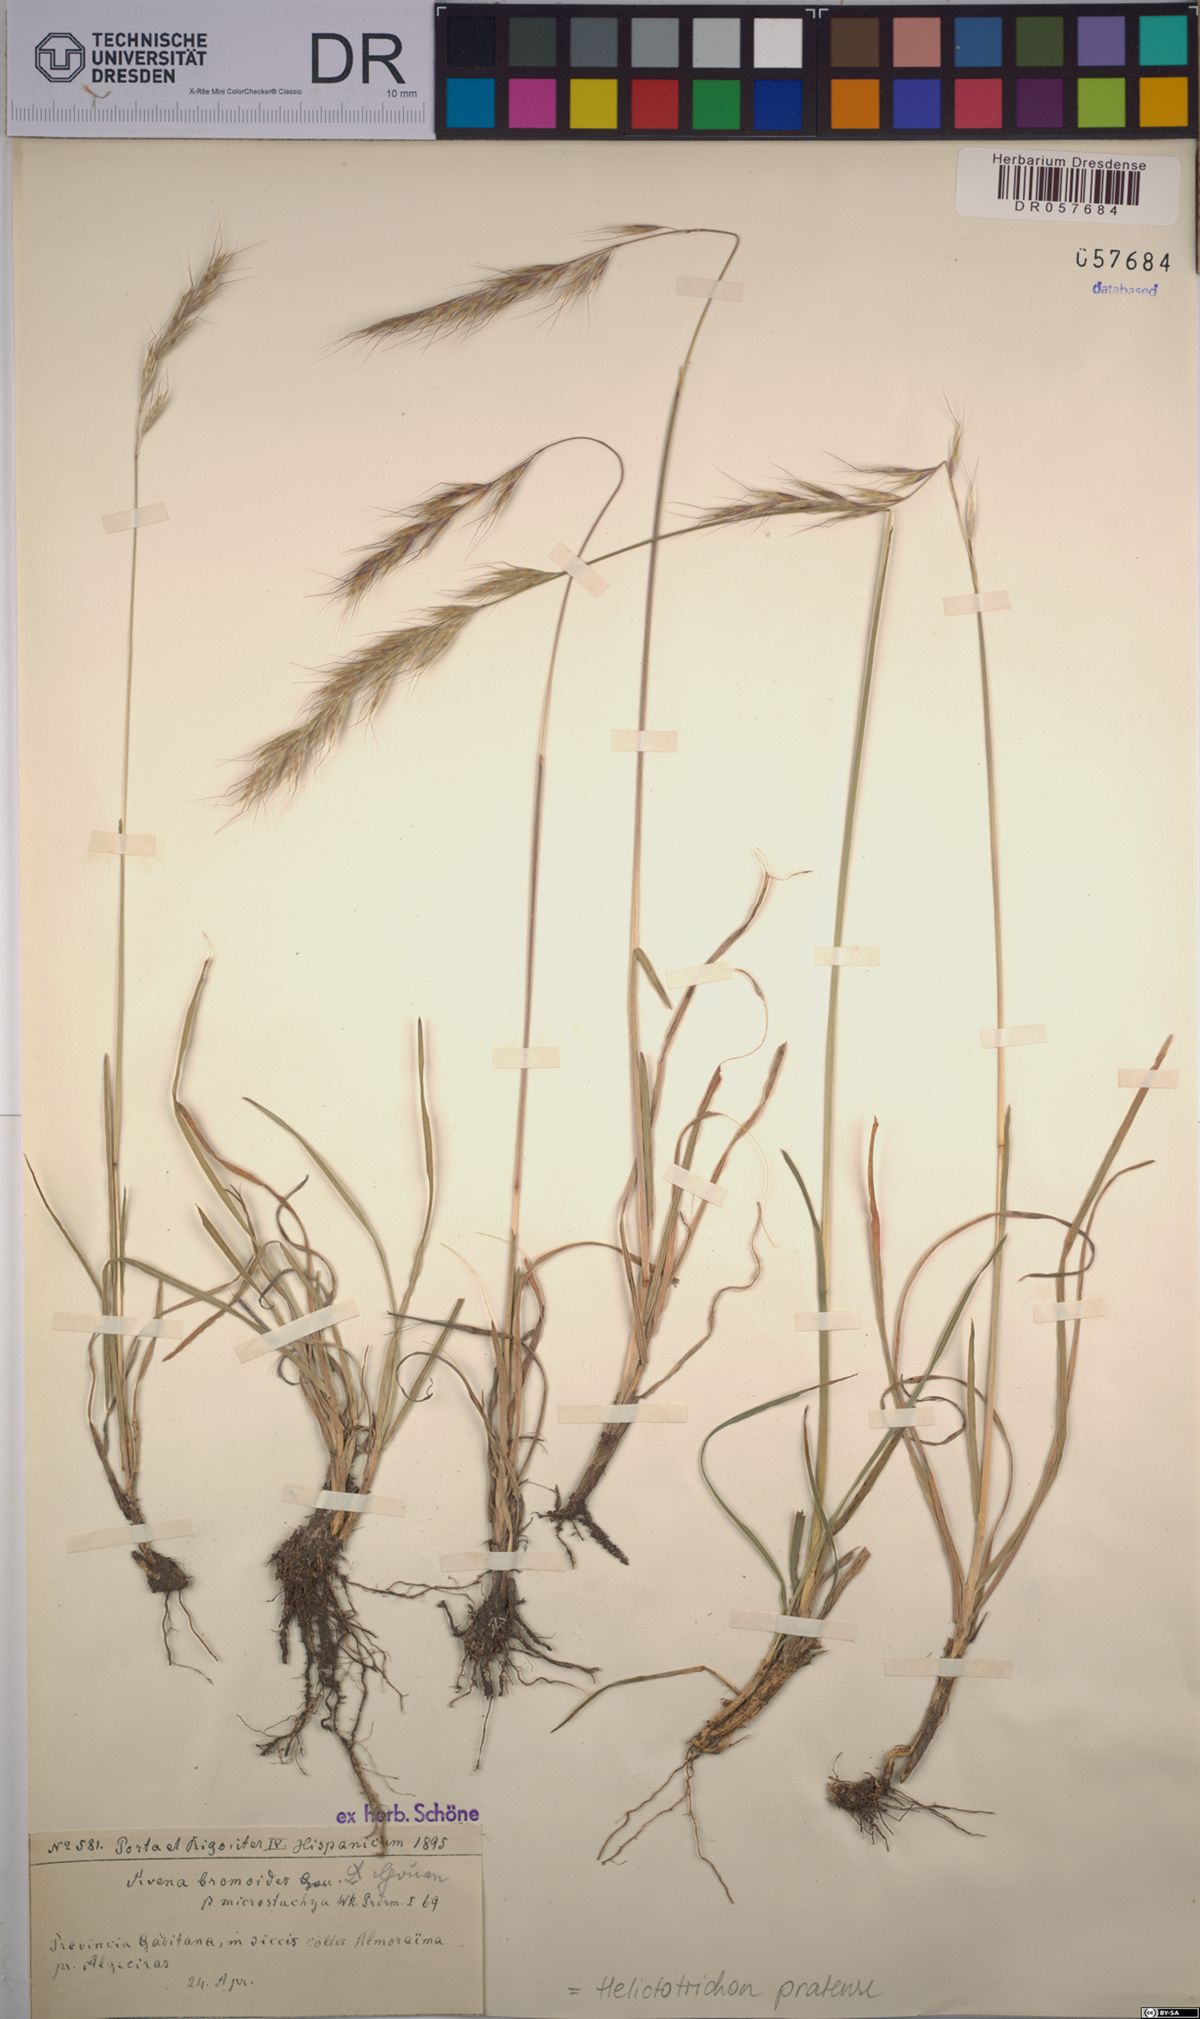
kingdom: Plantae
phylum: Tracheophyta
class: Liliopsida
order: Poales
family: Poaceae
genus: Helictochloa
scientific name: Helictochloa pratensis
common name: Meadow oat grass
